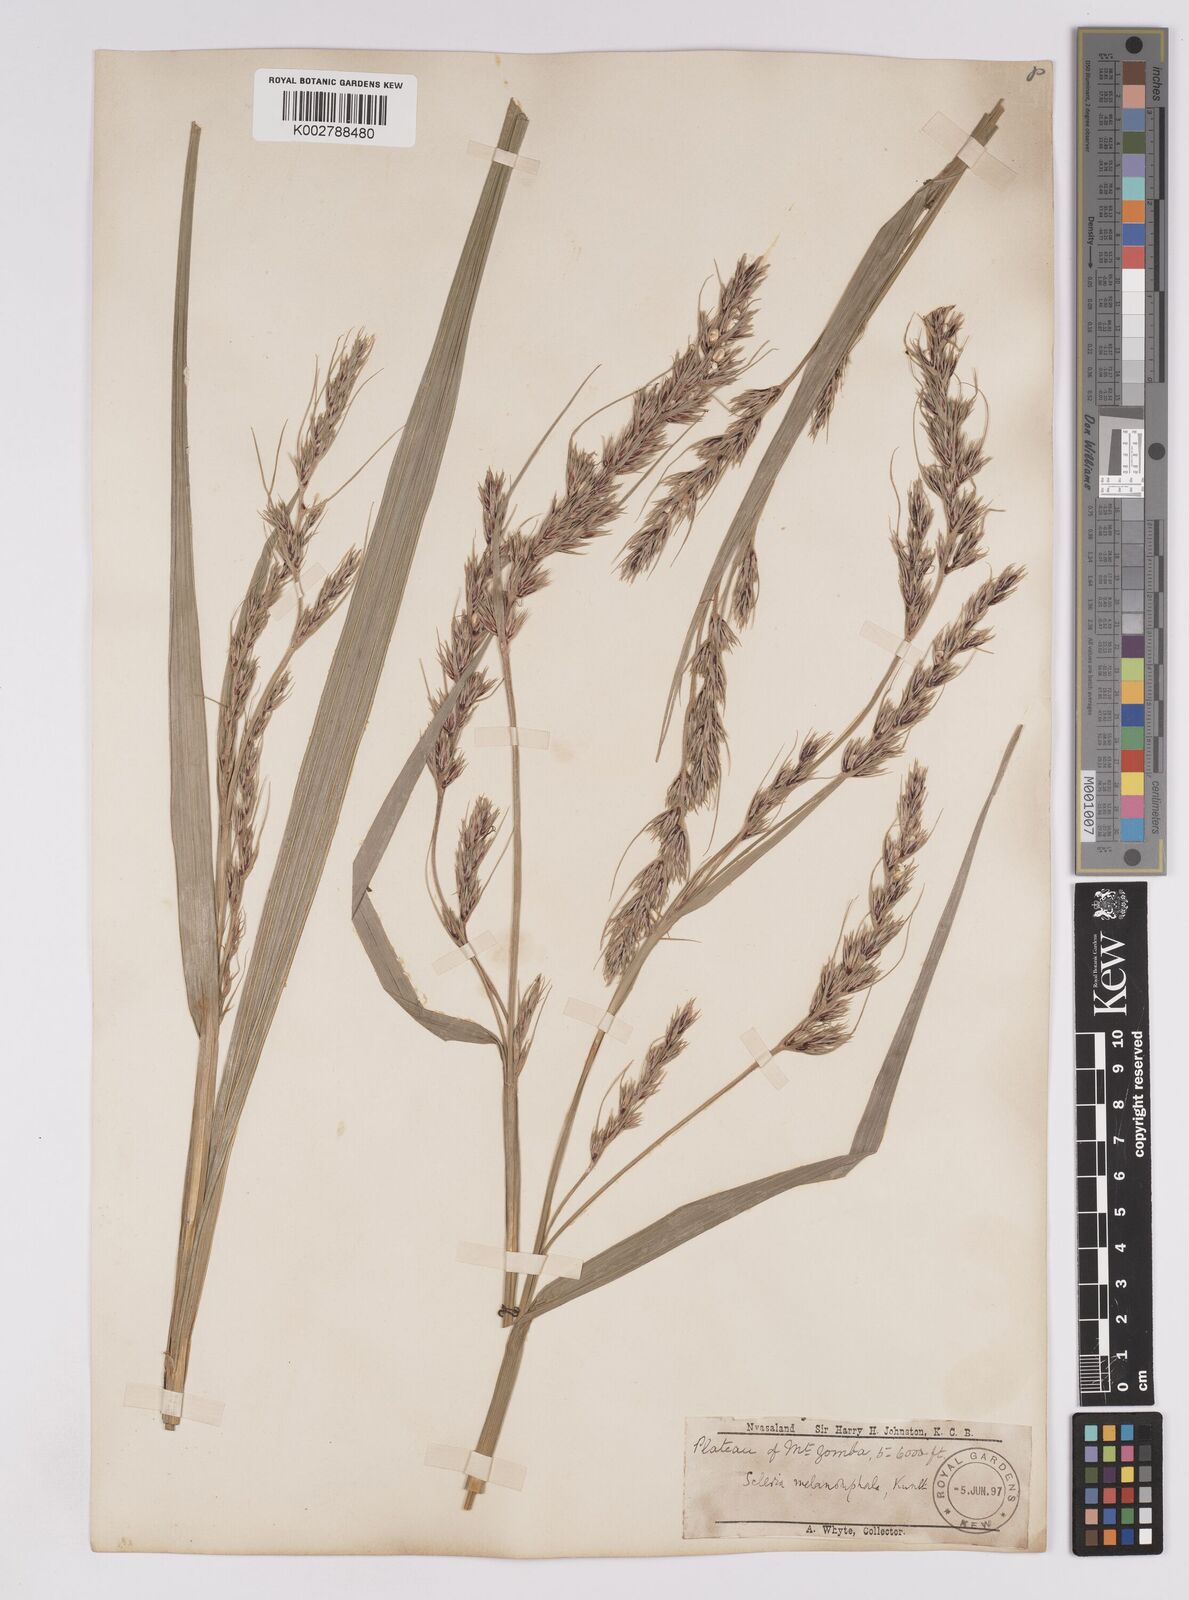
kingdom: Plantae
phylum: Tracheophyta
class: Liliopsida
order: Poales
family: Cyperaceae
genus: Scleria
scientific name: Scleria melanomphala
